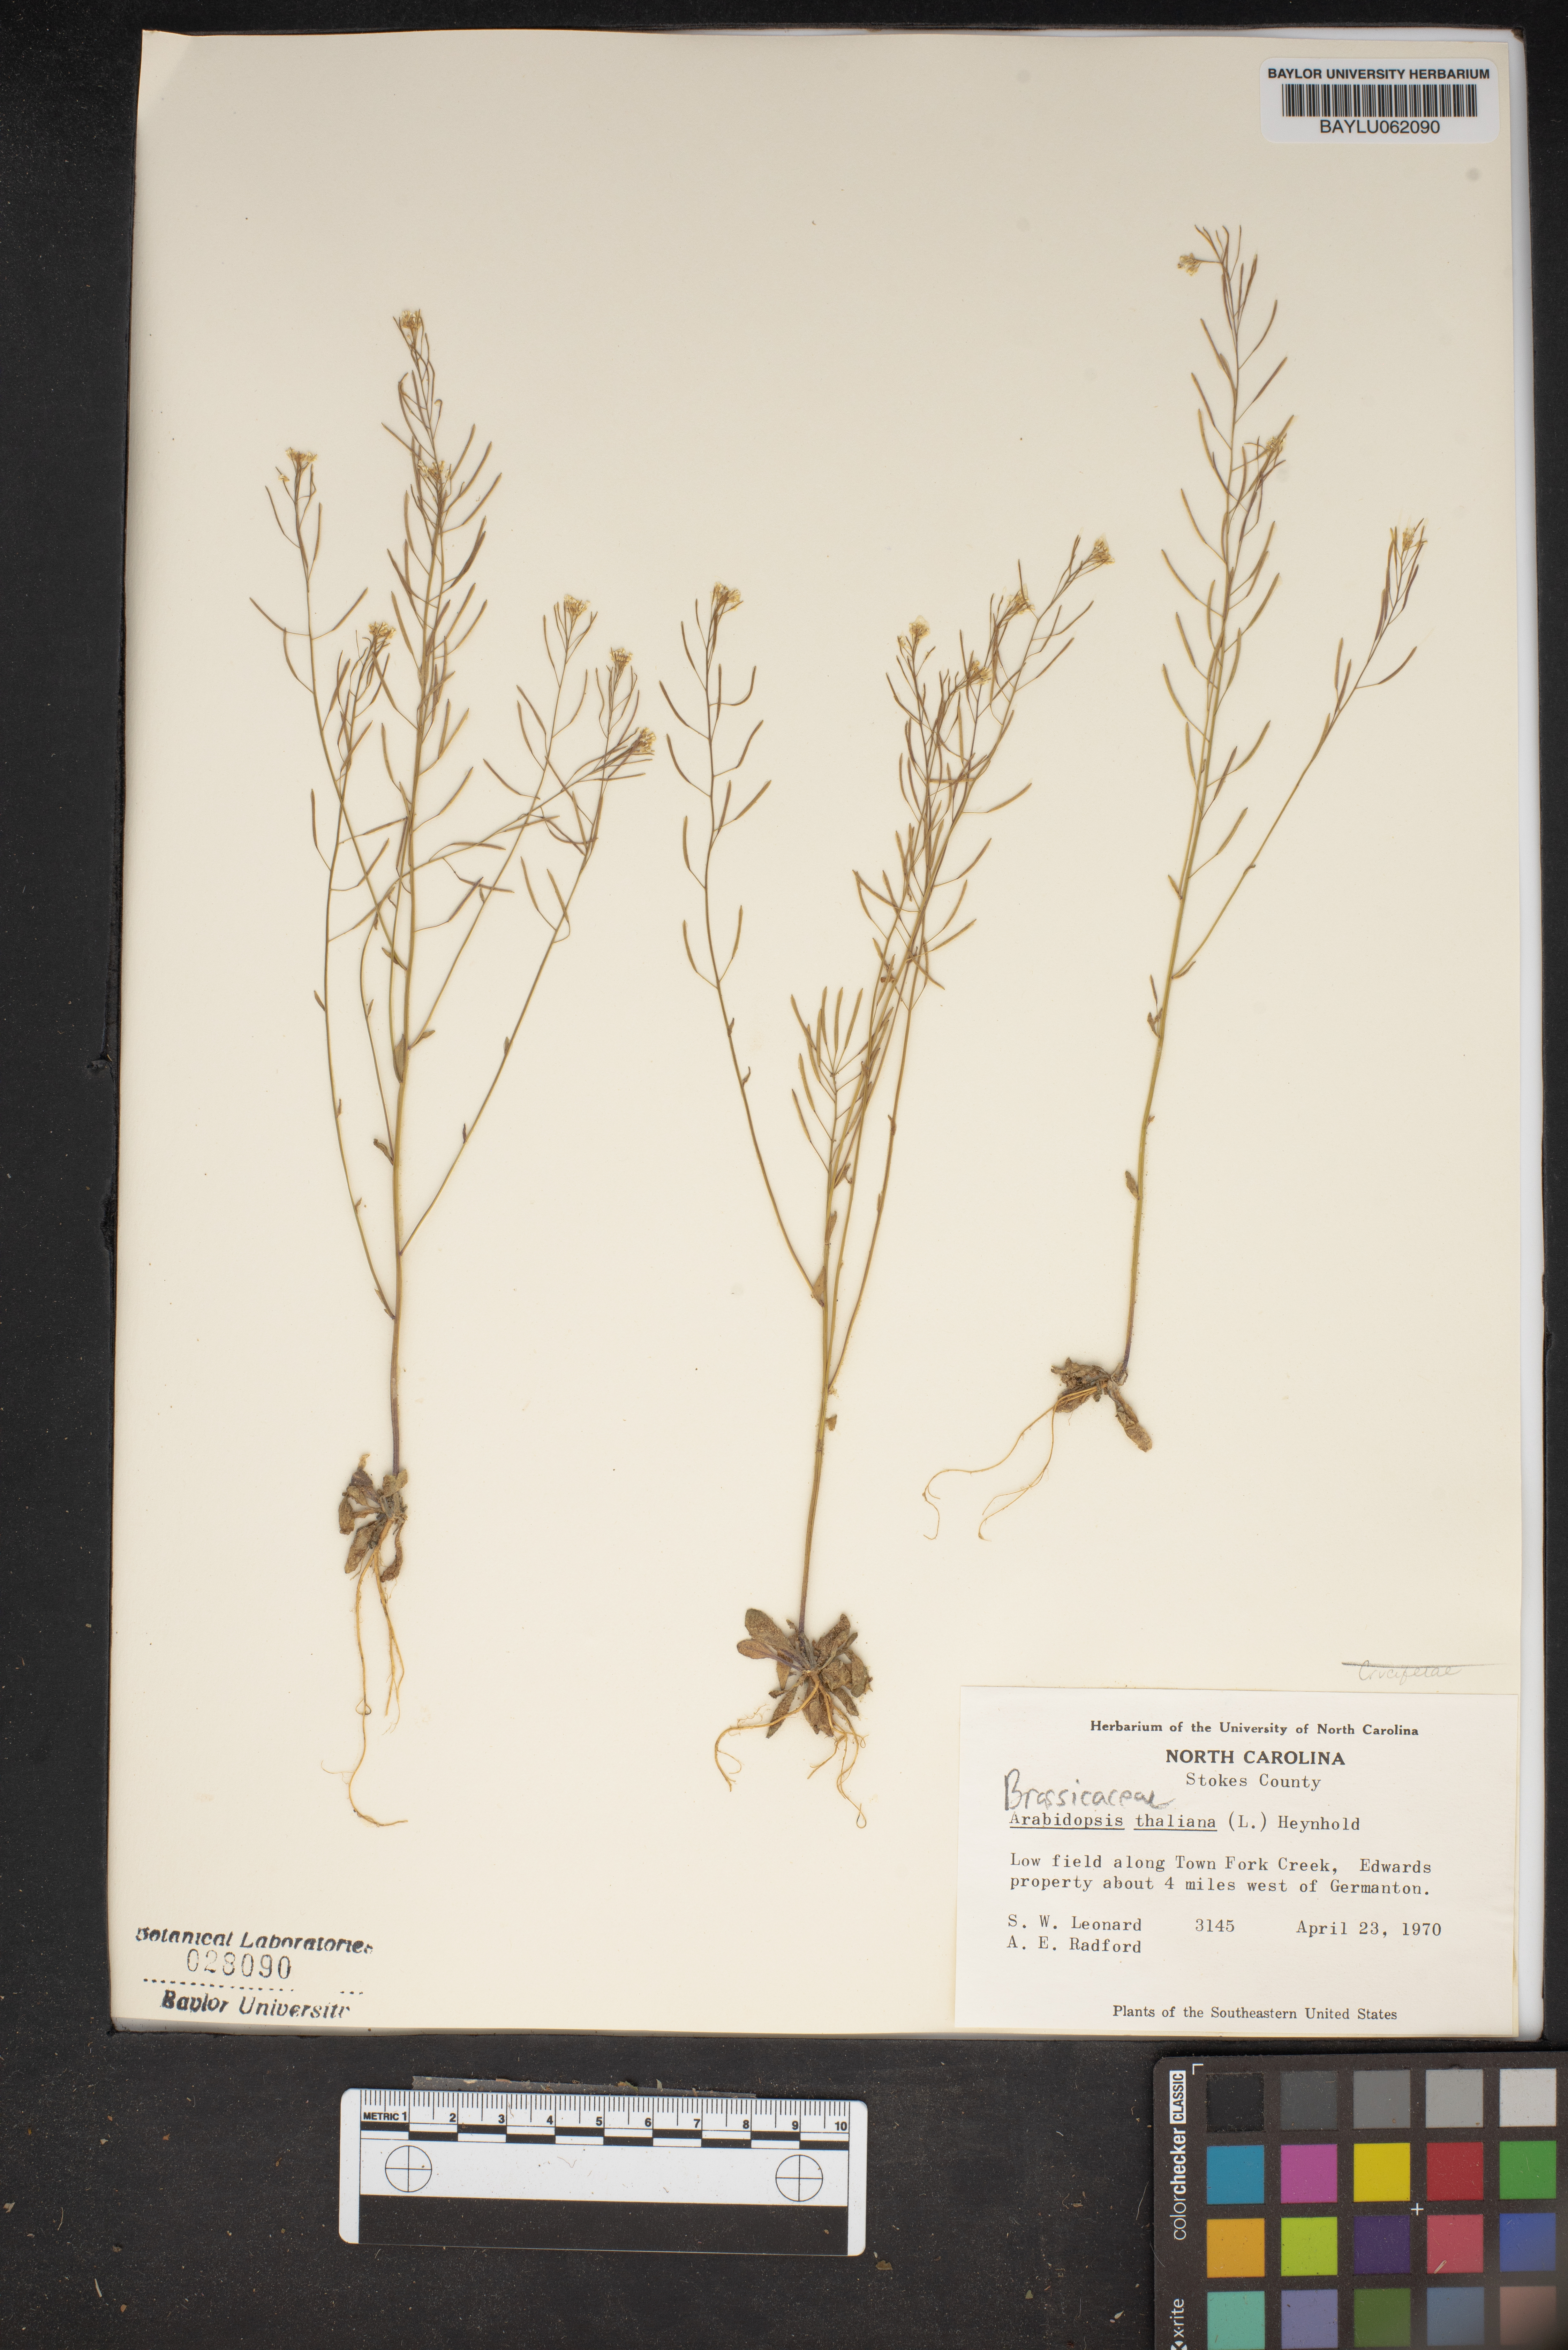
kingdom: Plantae
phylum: Tracheophyta
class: Magnoliopsida
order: Brassicales
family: Brassicaceae
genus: Arabidopsis
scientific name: Arabidopsis thaliana
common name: Thale cress
